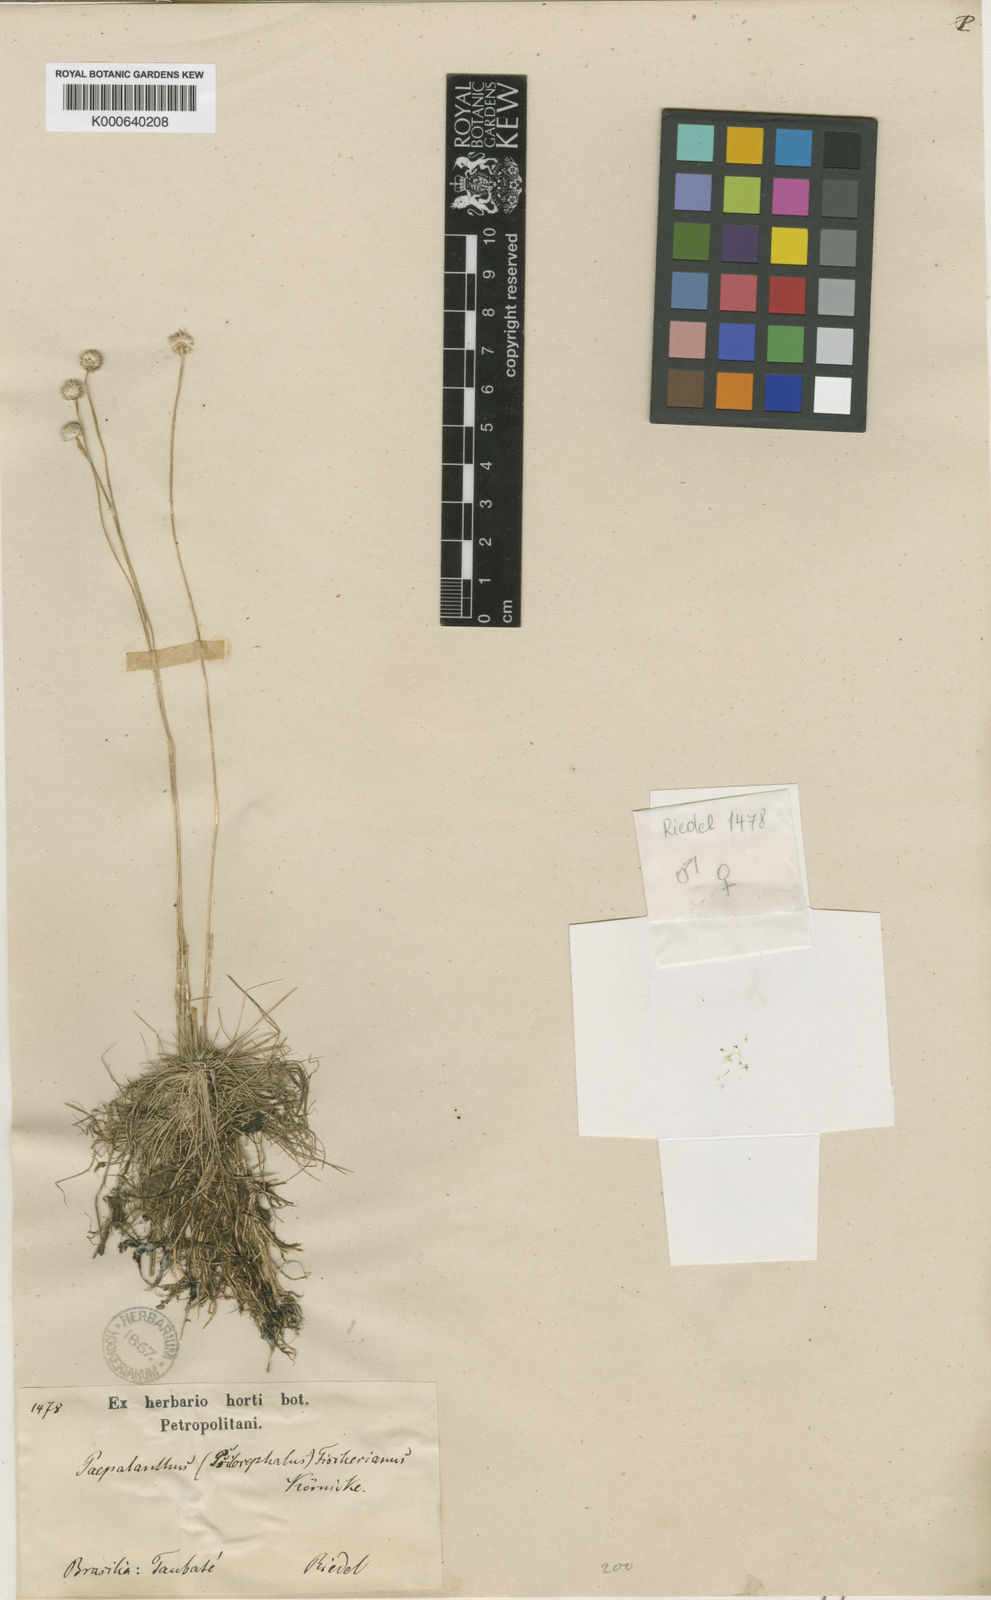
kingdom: Plantae
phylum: Tracheophyta
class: Liliopsida
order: Poales
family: Eriocaulaceae
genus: Syngonanthus
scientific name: Syngonanthus fischerianus
